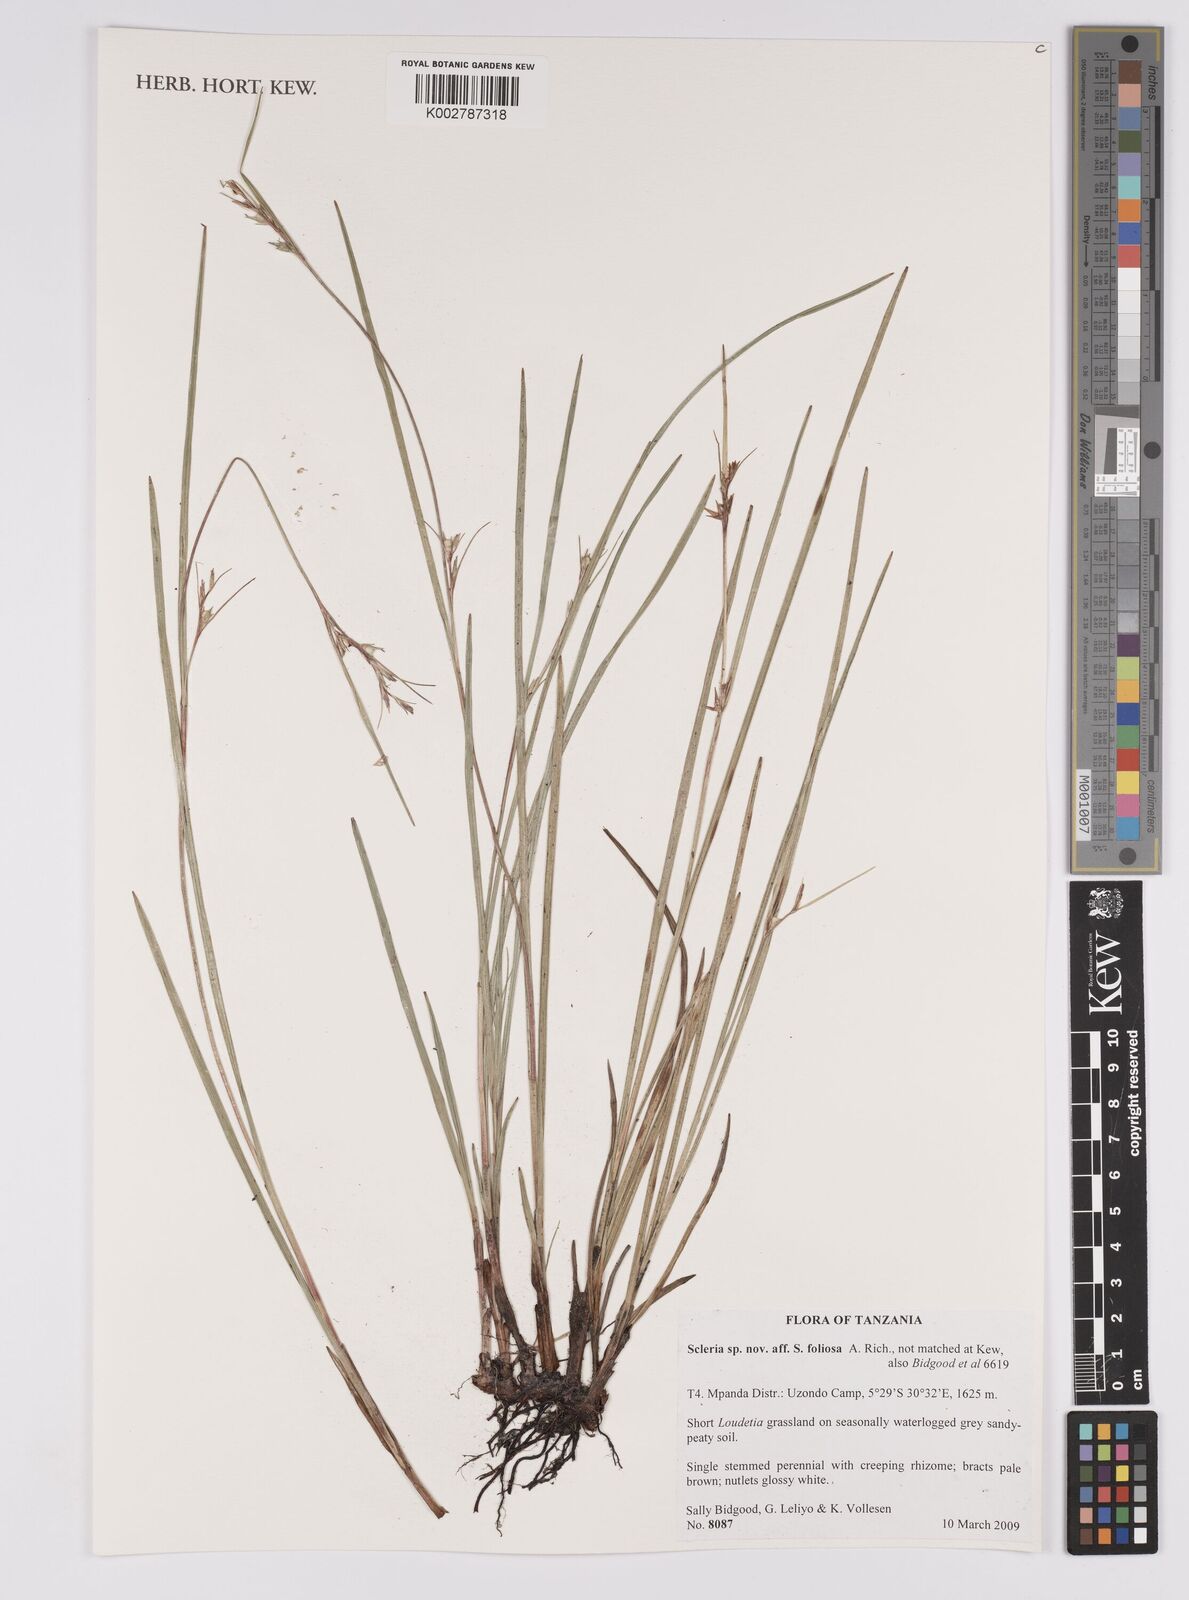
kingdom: Plantae
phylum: Tracheophyta
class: Liliopsida
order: Poales
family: Cyperaceae
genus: Scleria
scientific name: Scleria foliosa
